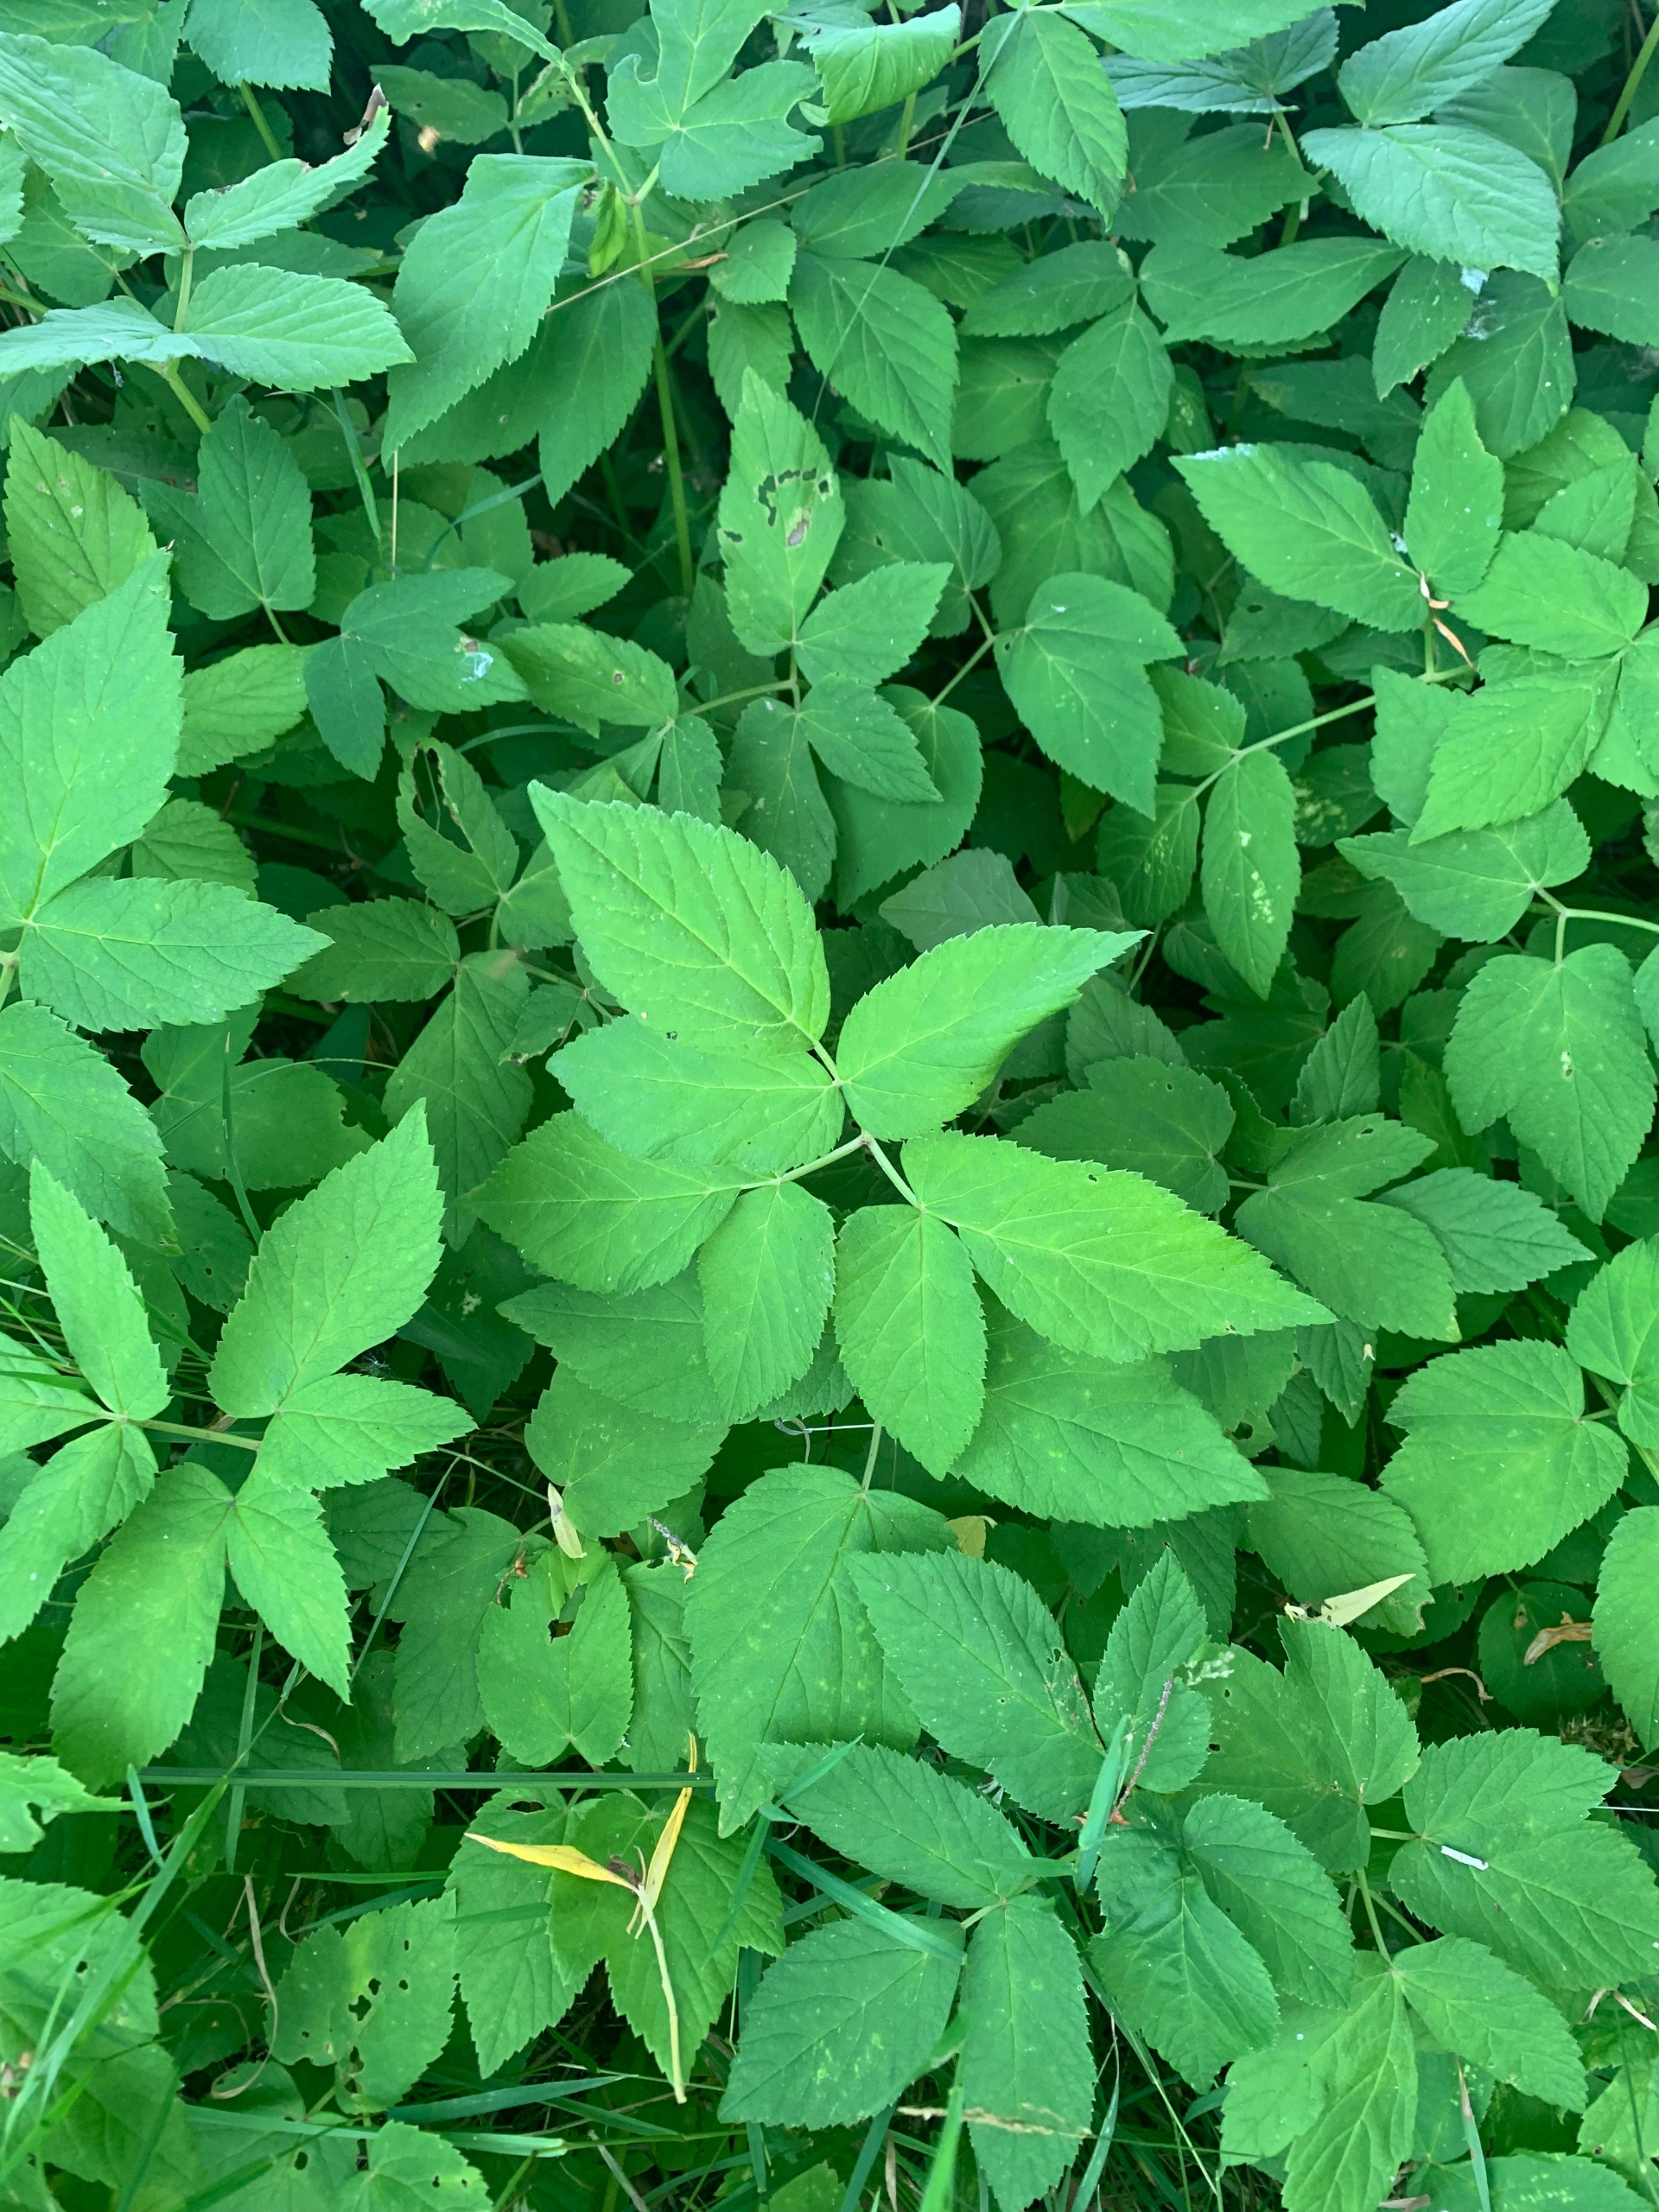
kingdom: Plantae
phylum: Tracheophyta
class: Magnoliopsida
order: Apiales
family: Apiaceae
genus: Aegopodium
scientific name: Aegopodium podagraria
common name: Skvalderkål
